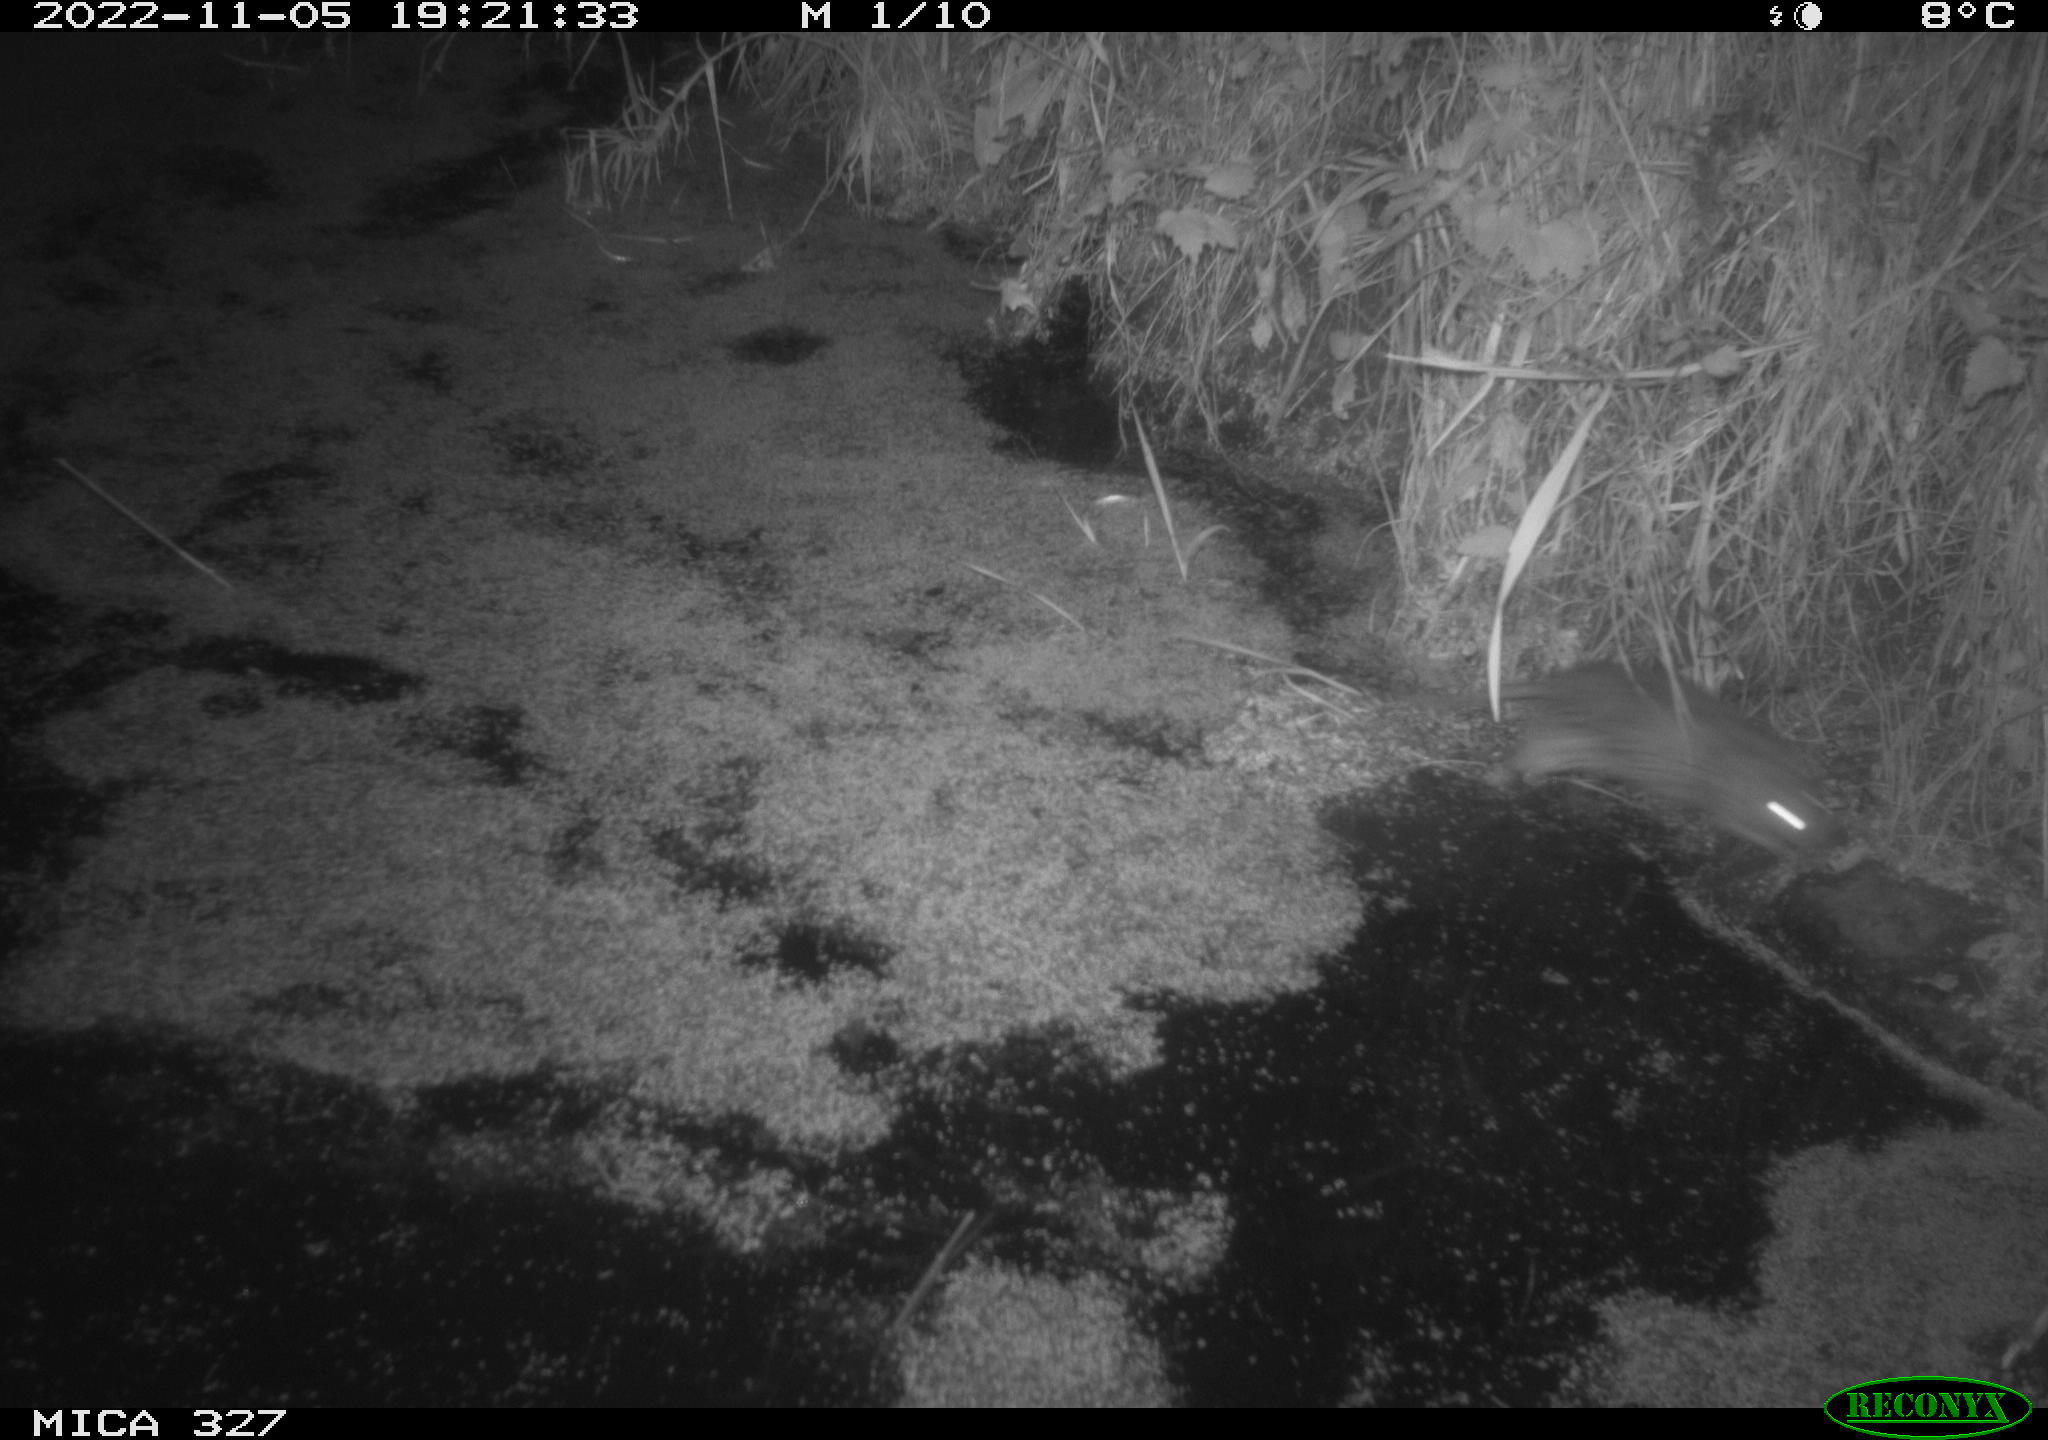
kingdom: Animalia
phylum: Chordata
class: Mammalia
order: Rodentia
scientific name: Rodentia
